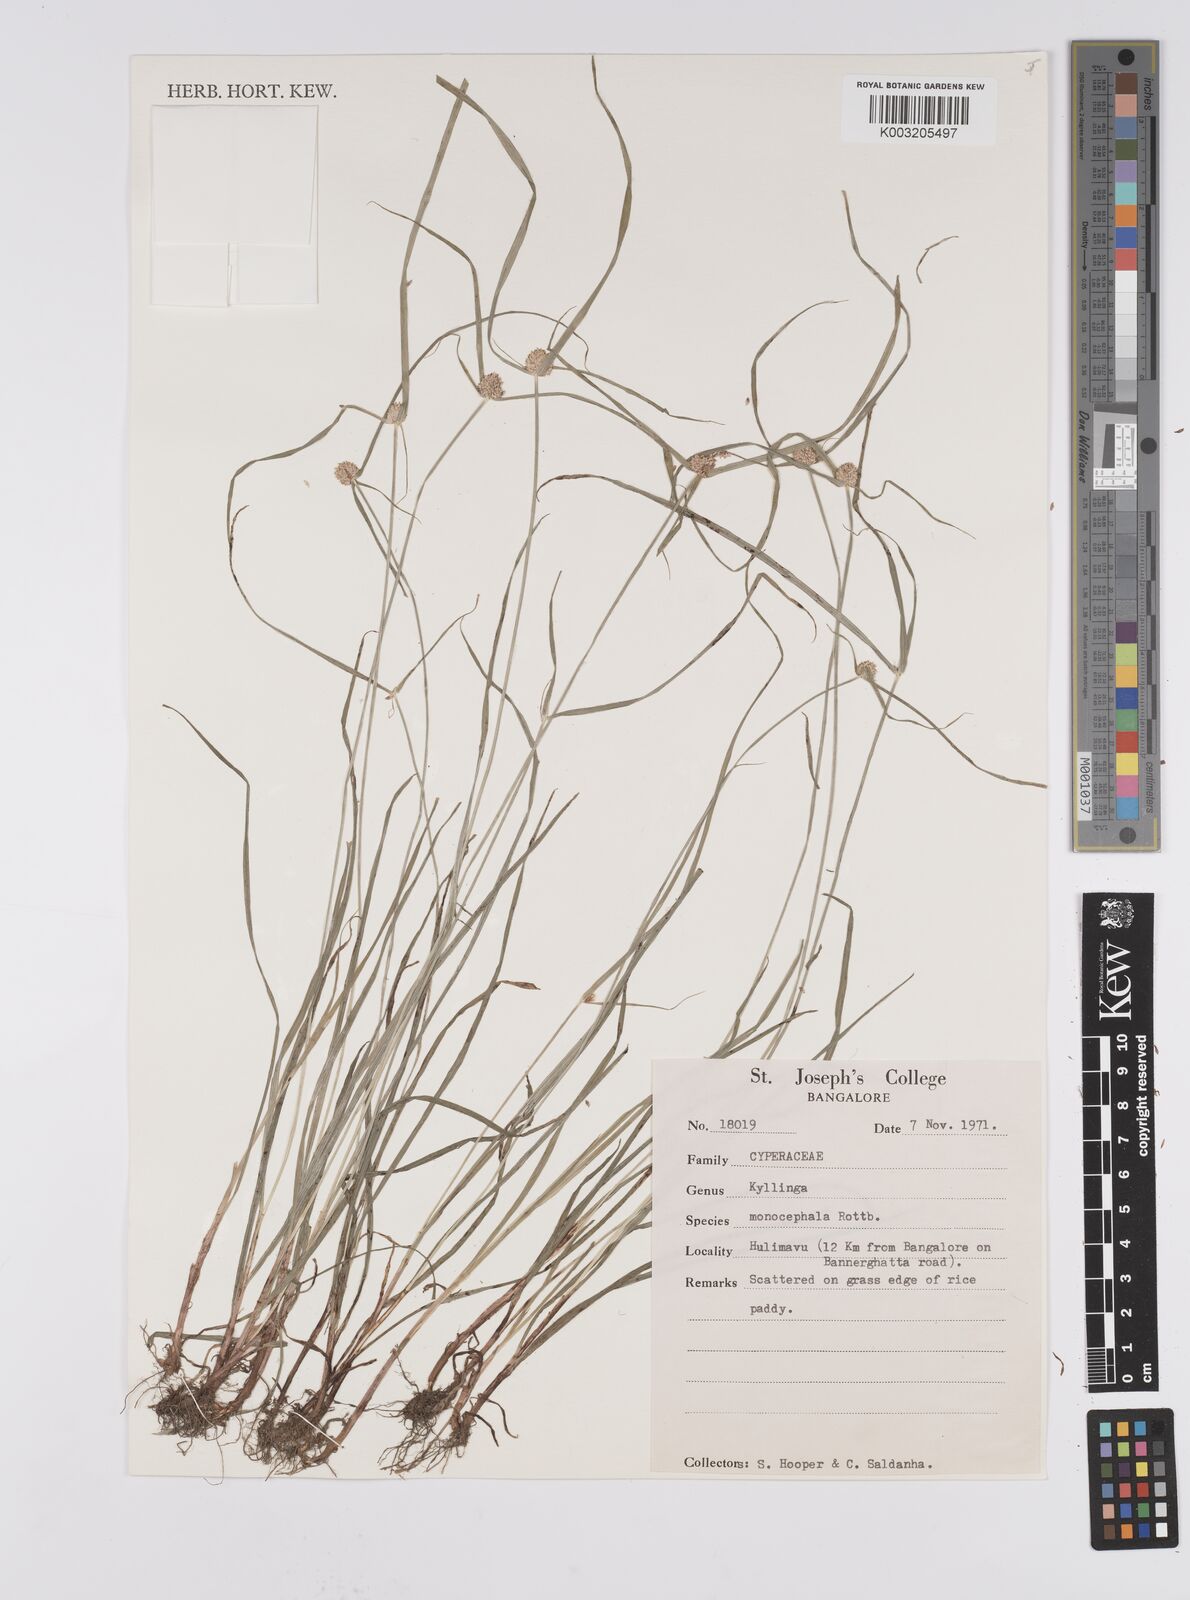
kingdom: Plantae
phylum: Tracheophyta
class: Liliopsida
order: Poales
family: Cyperaceae
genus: Cyperus
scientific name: Cyperus nemoralis
